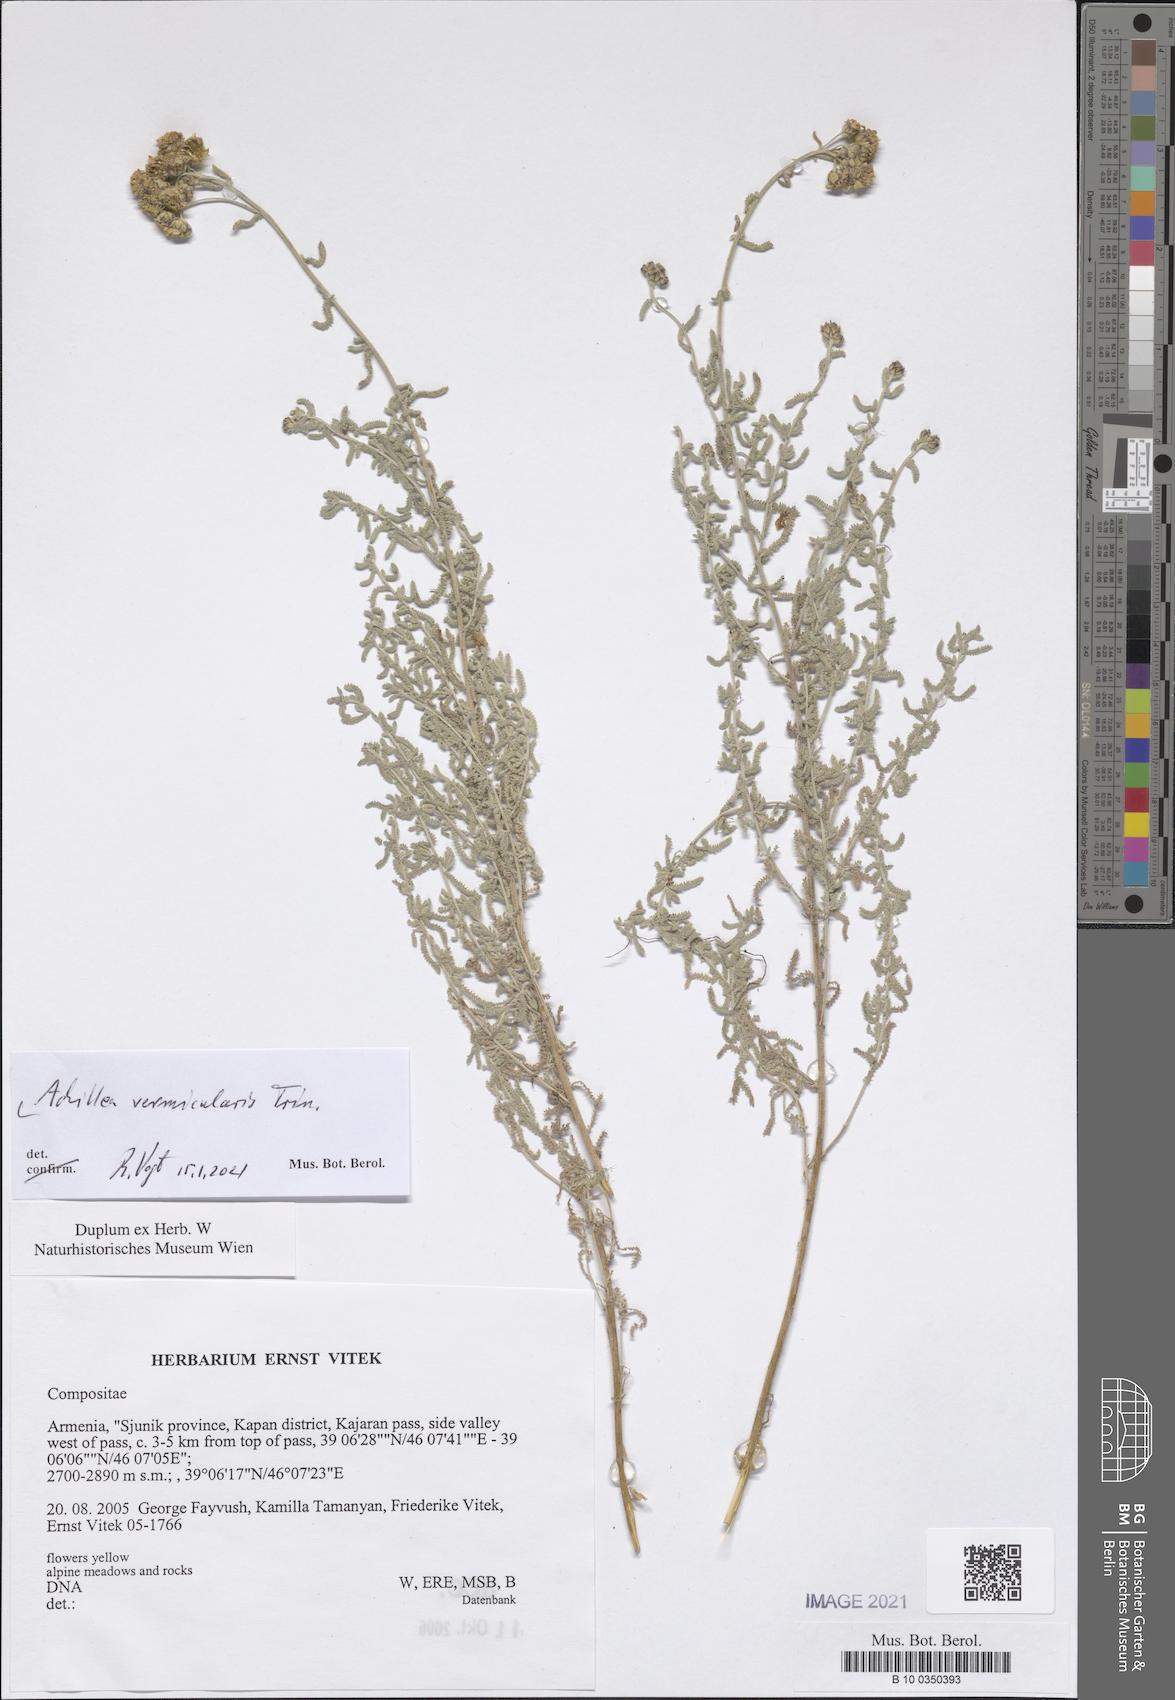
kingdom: Plantae
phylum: Tracheophyta
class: Magnoliopsida
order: Asterales
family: Asteraceae
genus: Achillea
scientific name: Achillea vermicularis
